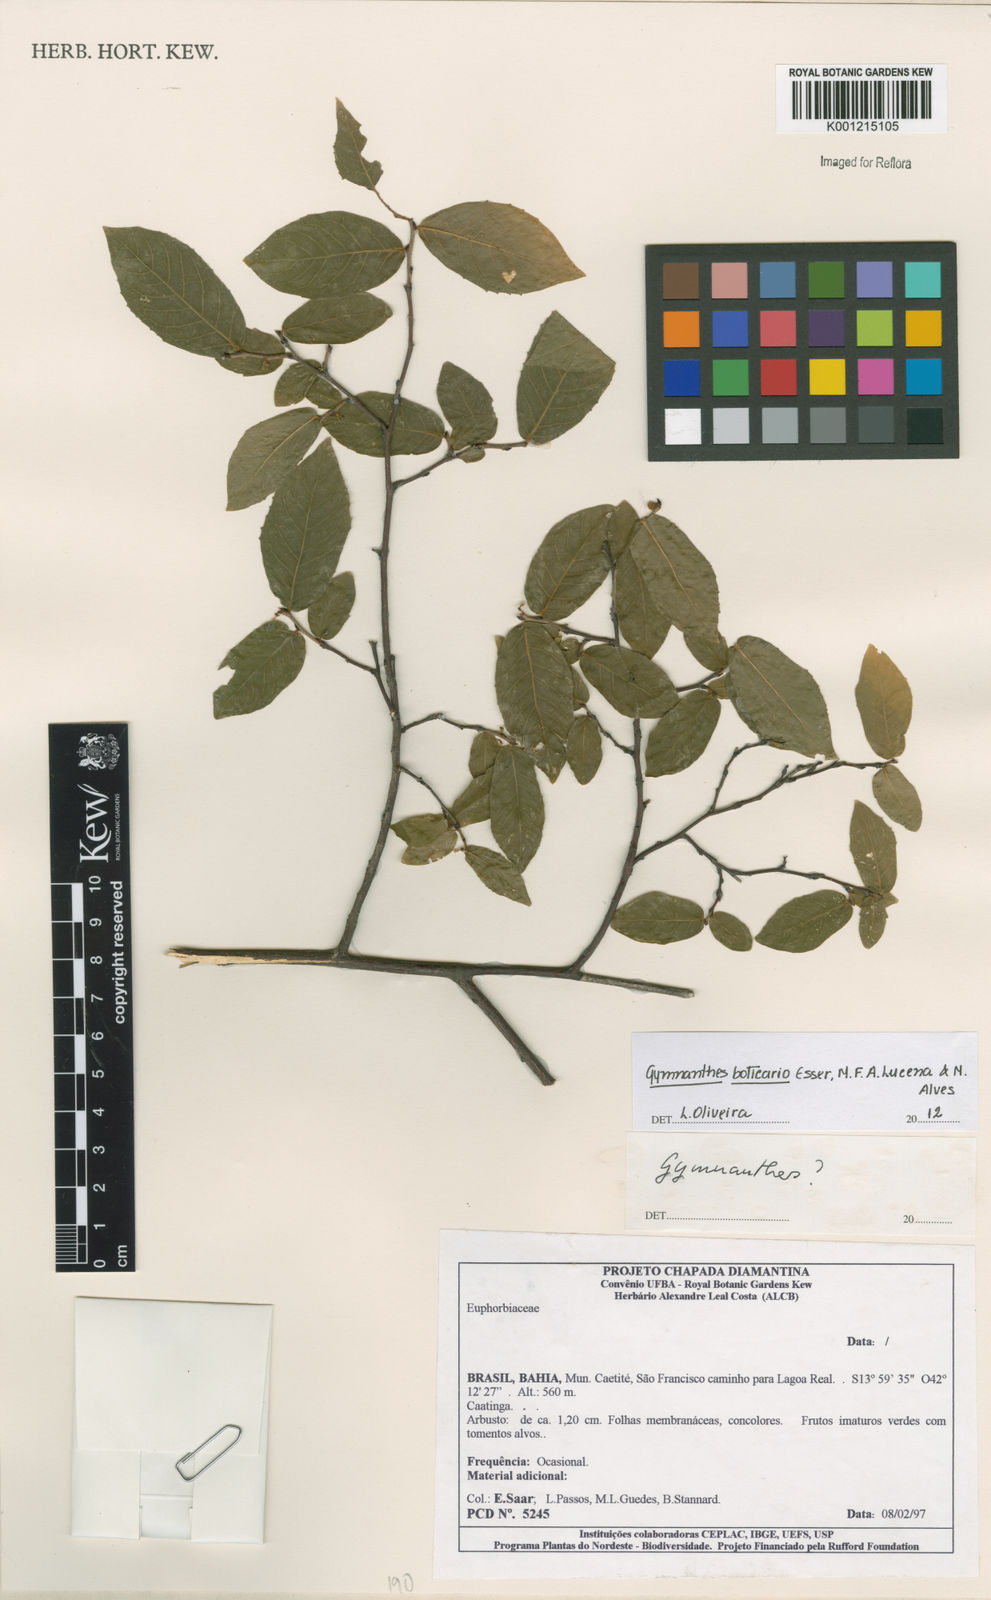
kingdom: Plantae
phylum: Tracheophyta
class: Magnoliopsida
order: Malpighiales
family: Euphorbiaceae
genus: Gymnanthes
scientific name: Gymnanthes boticario
